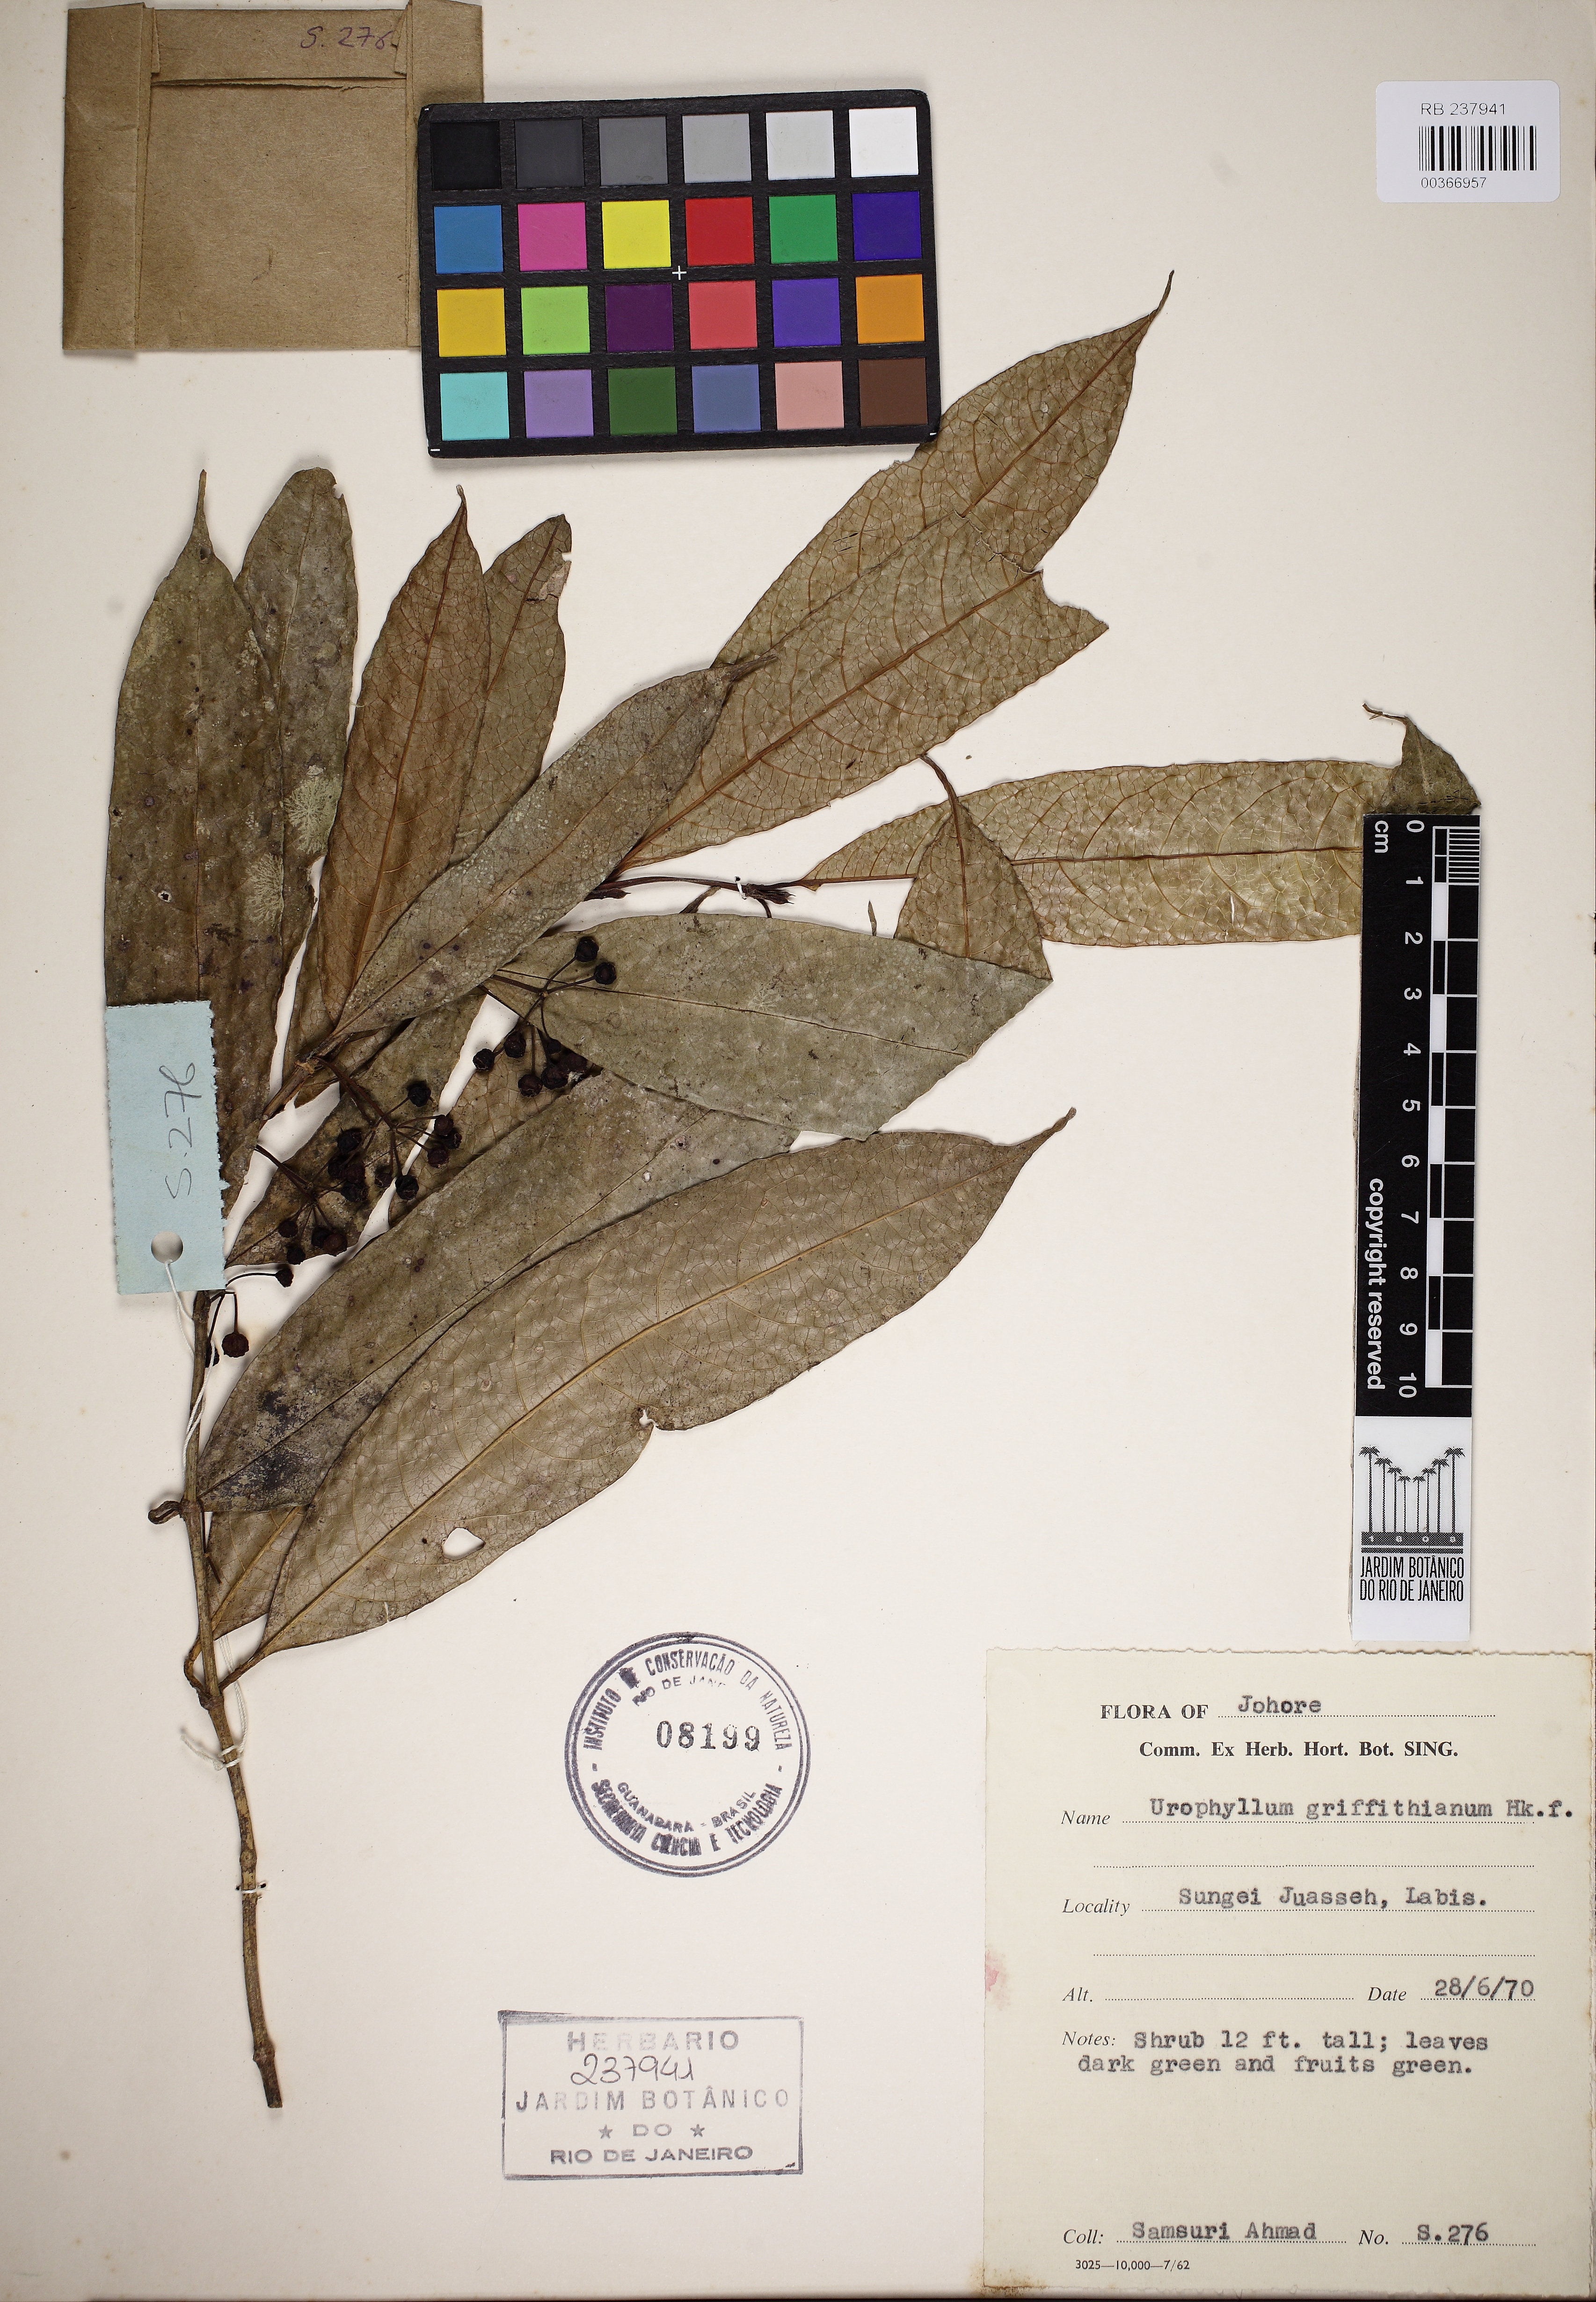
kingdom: Plantae
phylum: Tracheophyta
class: Magnoliopsida
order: Gentianales
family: Rubiaceae
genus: Urophyllum
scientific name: Urophyllum griffithianum
